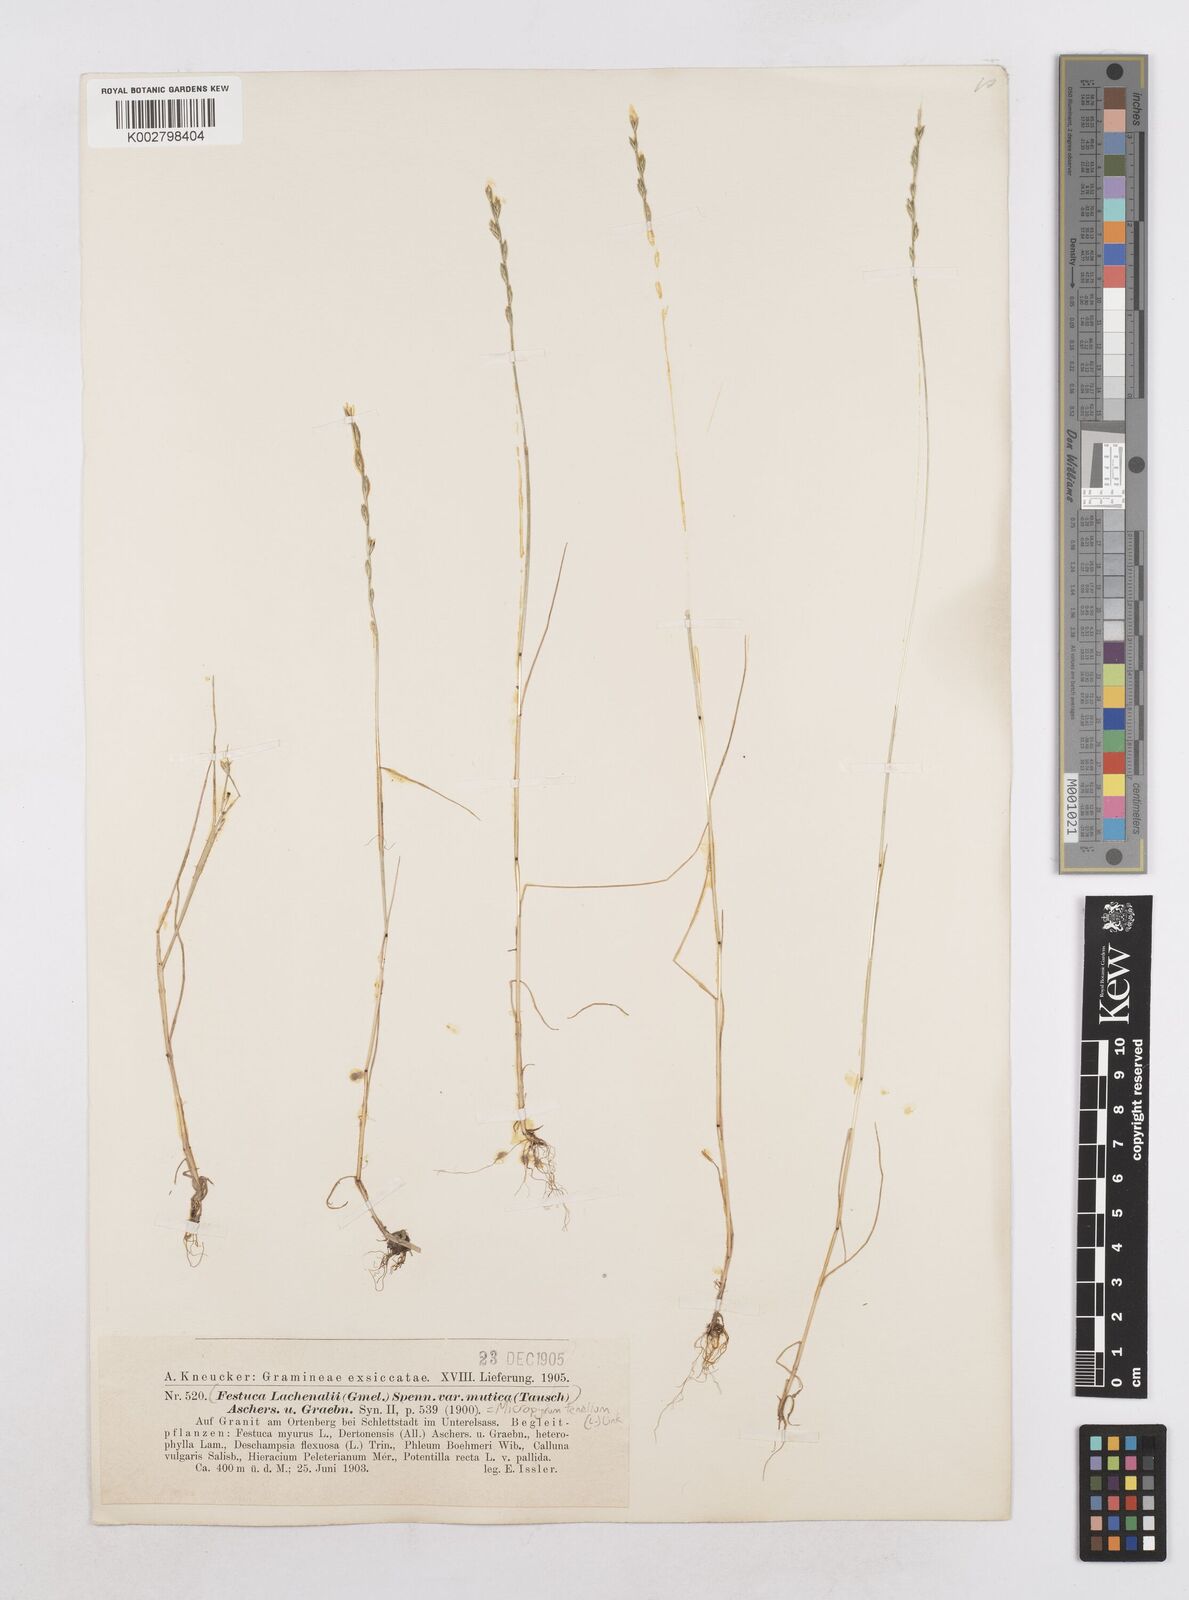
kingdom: Plantae
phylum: Tracheophyta
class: Liliopsida
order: Poales
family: Poaceae
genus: Festuca
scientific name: Festuca lachenalii
